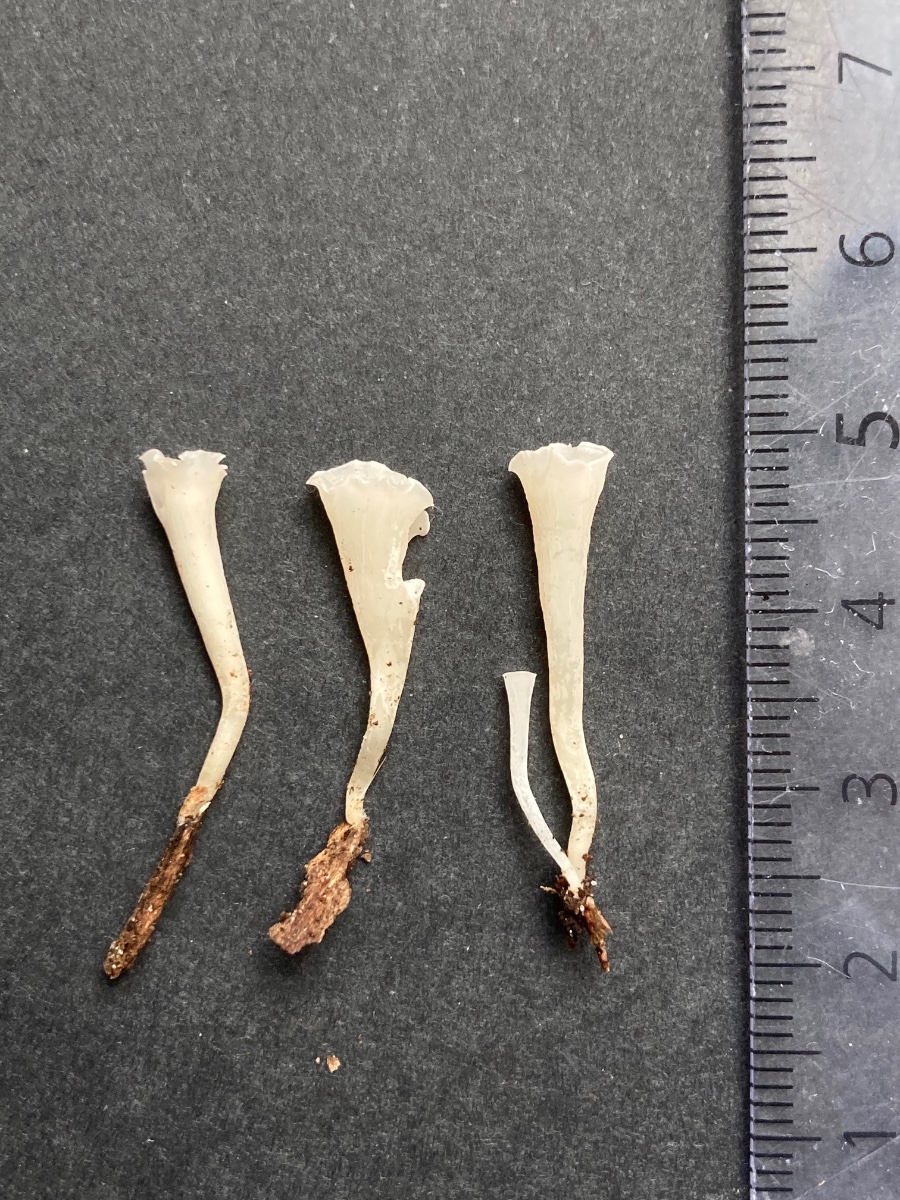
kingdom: Fungi
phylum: Basidiomycota
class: Agaricomycetes
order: Agaricales
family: Clavariaceae
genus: Clavicorona
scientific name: Clavicorona taxophila
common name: trompetkølle
